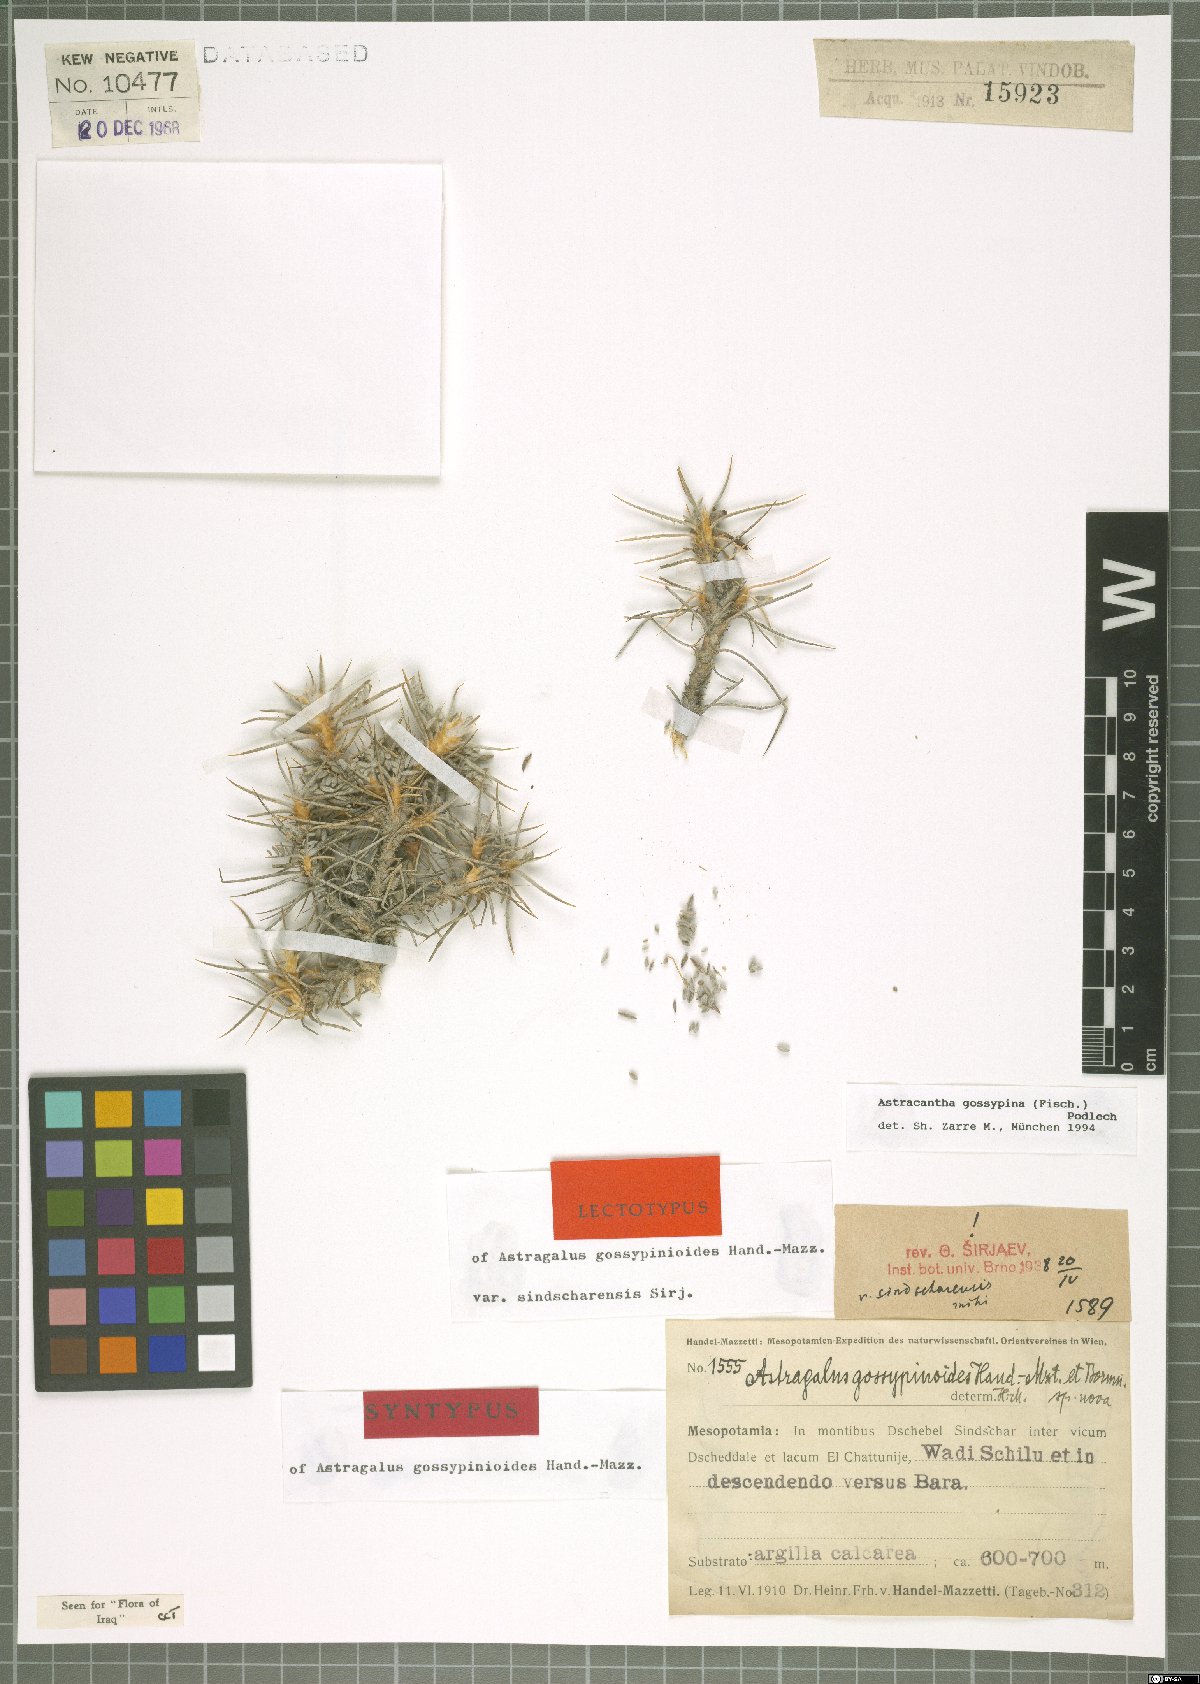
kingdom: Plantae
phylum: Tracheophyta
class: Magnoliopsida
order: Fabales
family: Fabaceae
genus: Astragalus
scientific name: Astragalus gossypinus
